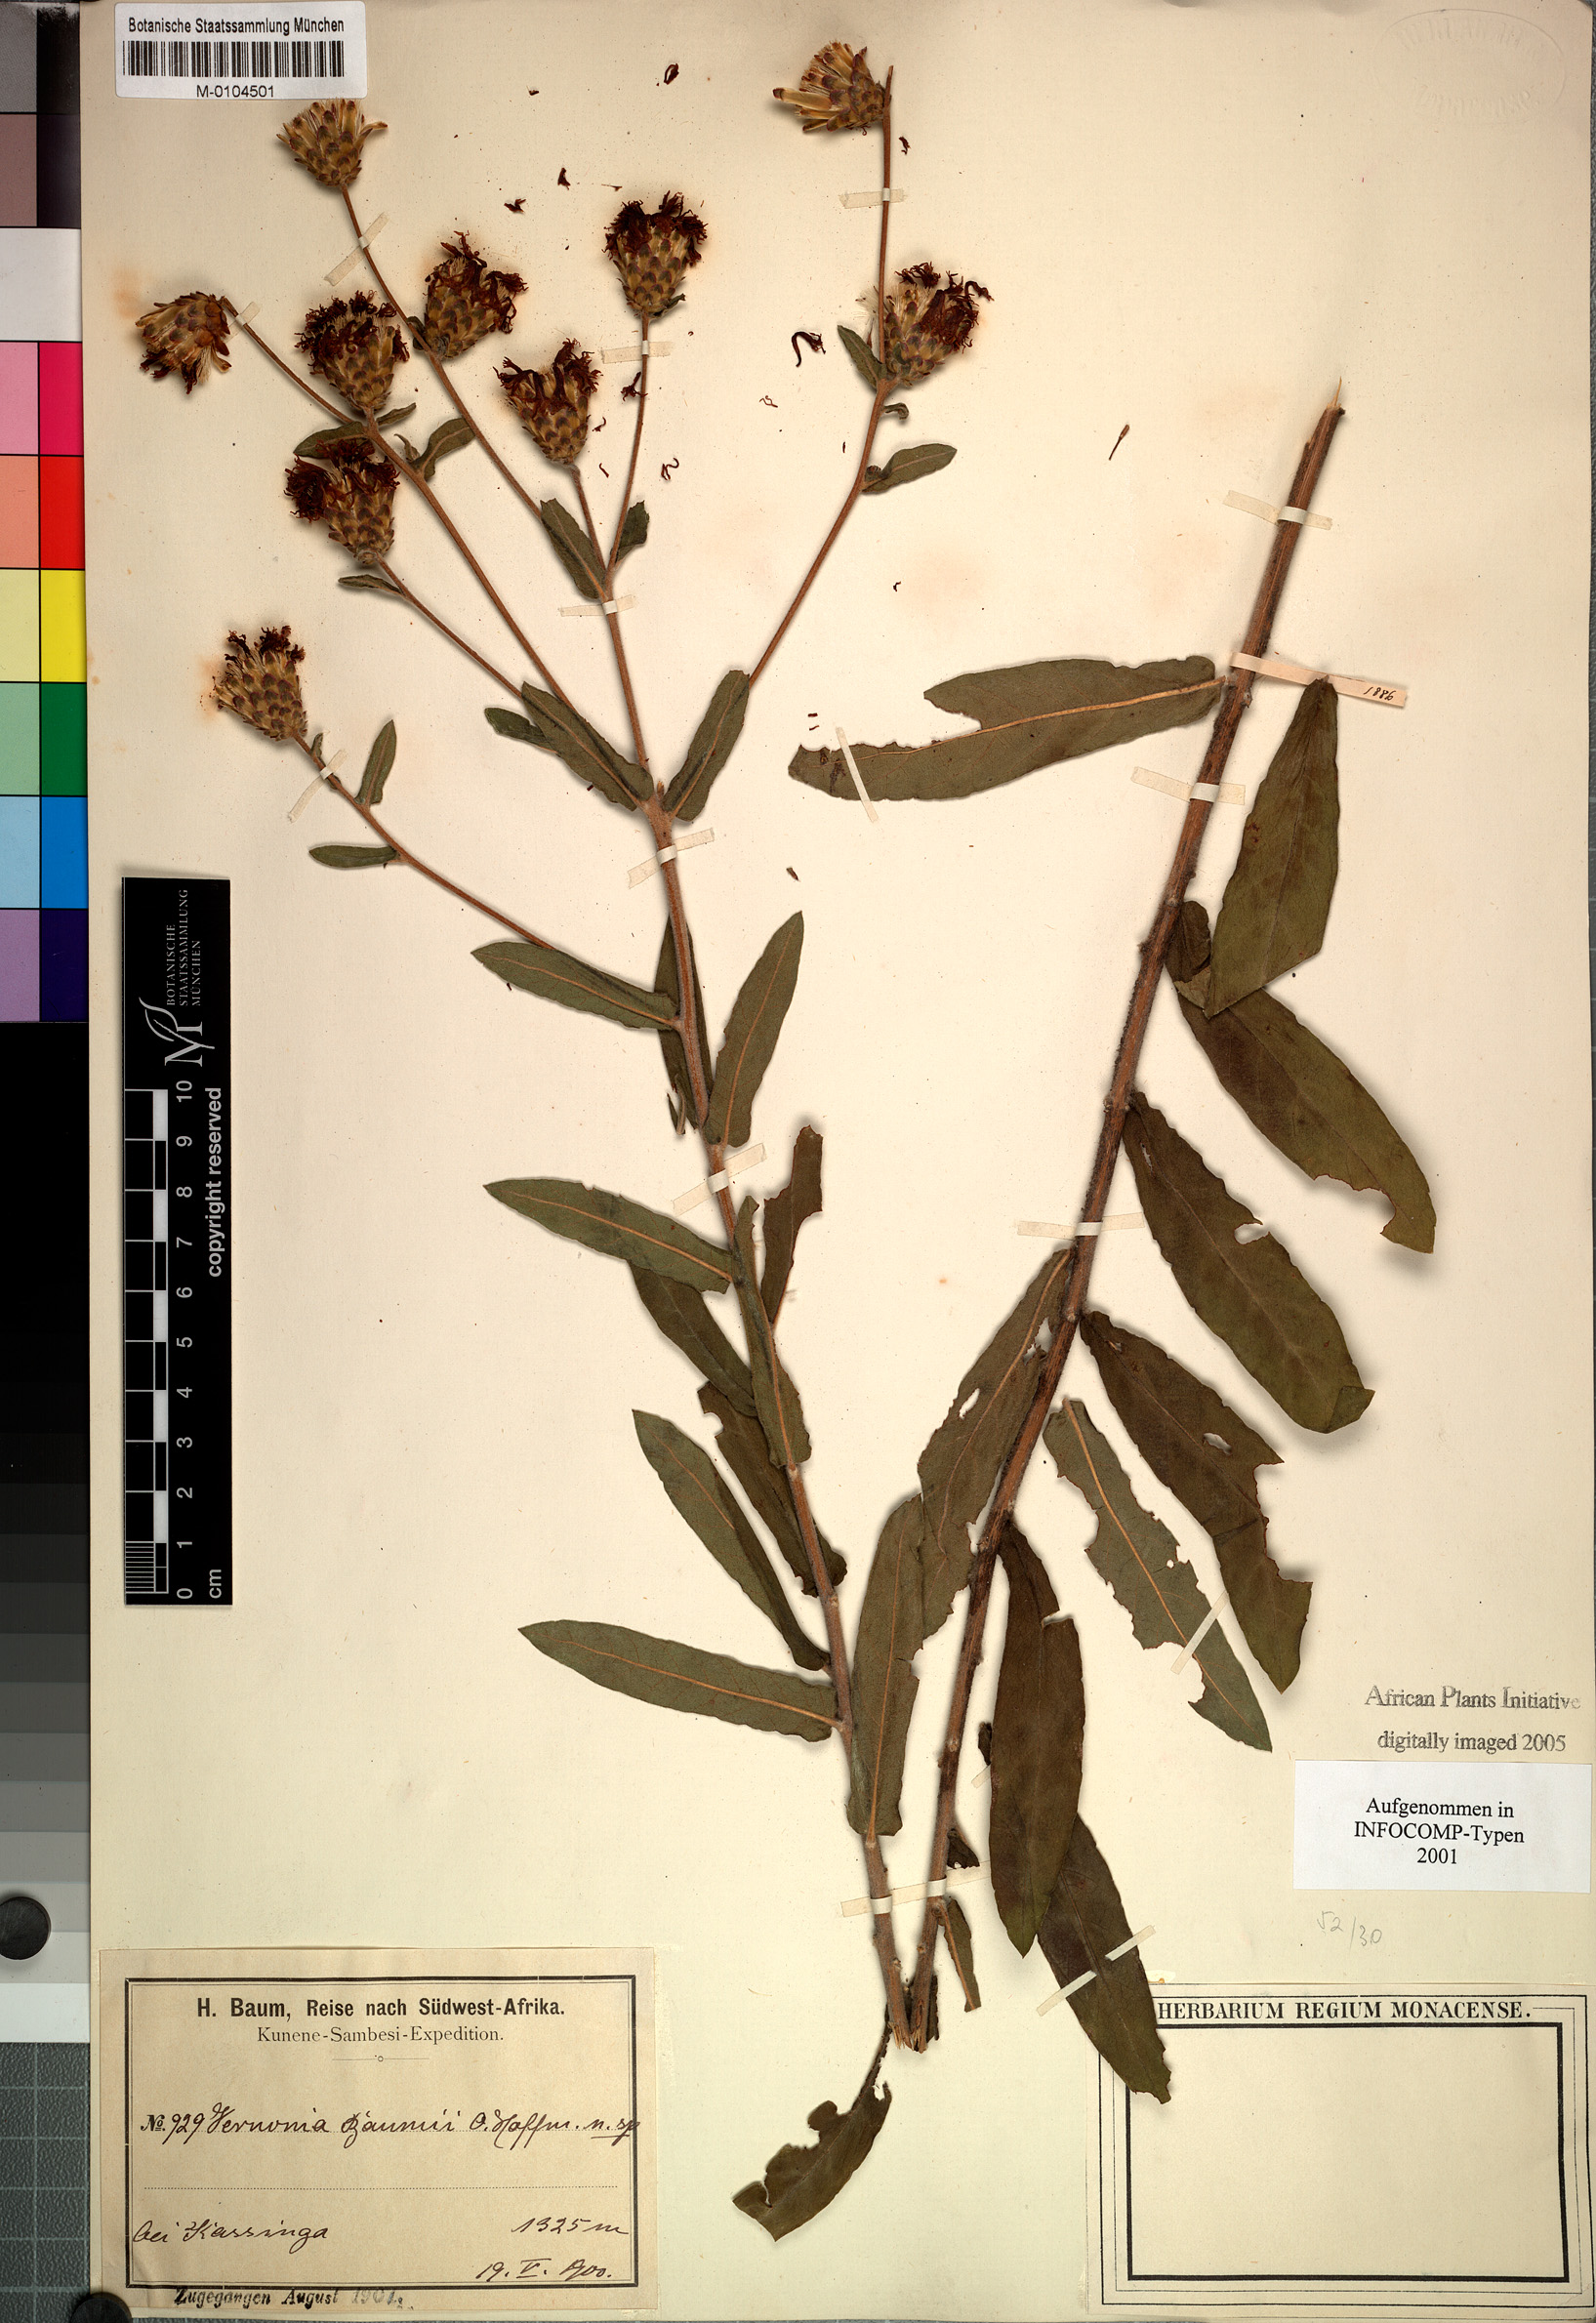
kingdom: Plantae
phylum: Tracheophyta
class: Magnoliopsida
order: Asterales
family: Asteraceae
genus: Vernonia
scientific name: Vernonia temnolepis
